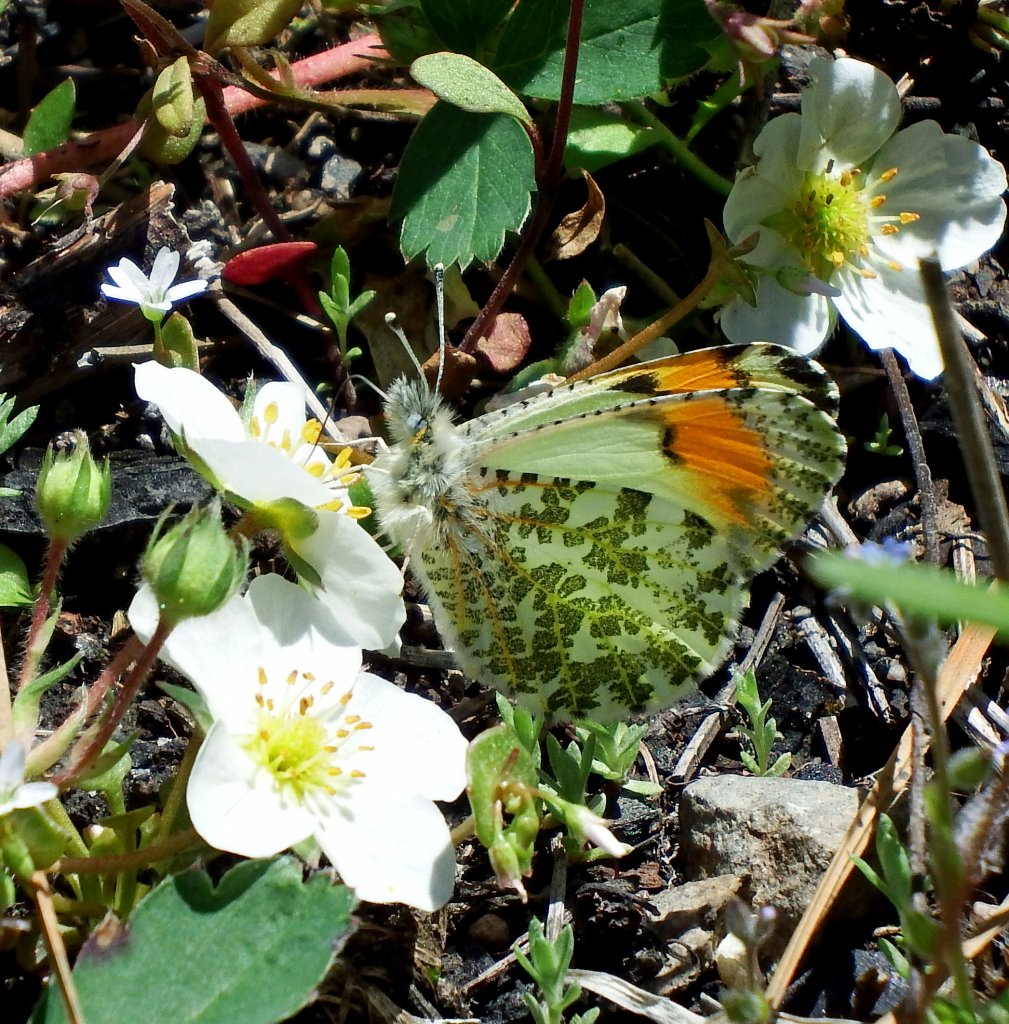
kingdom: Animalia
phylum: Arthropoda
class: Insecta
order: Lepidoptera
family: Pieridae
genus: Anthocharis
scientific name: Anthocharis sara
